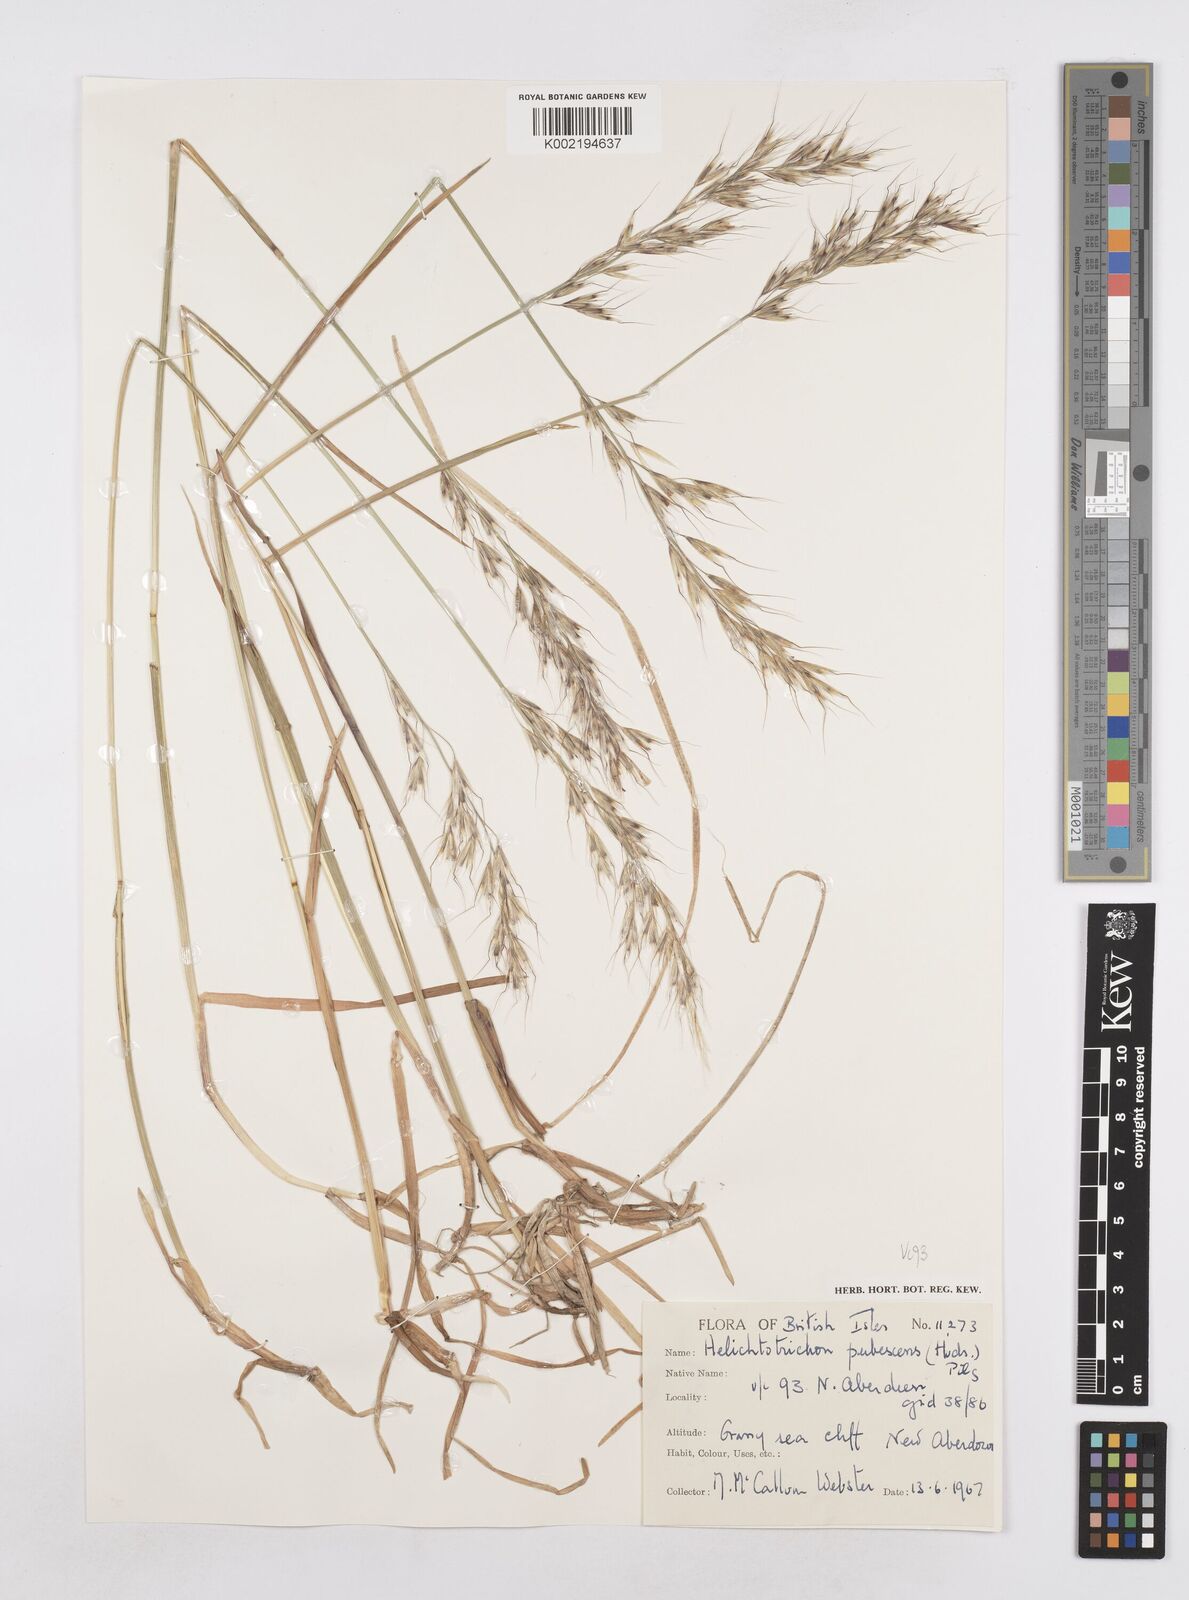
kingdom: Plantae
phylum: Tracheophyta
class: Liliopsida
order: Poales
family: Poaceae
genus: Avenula
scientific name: Avenula pubescens
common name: Downy alpine oatgrass
